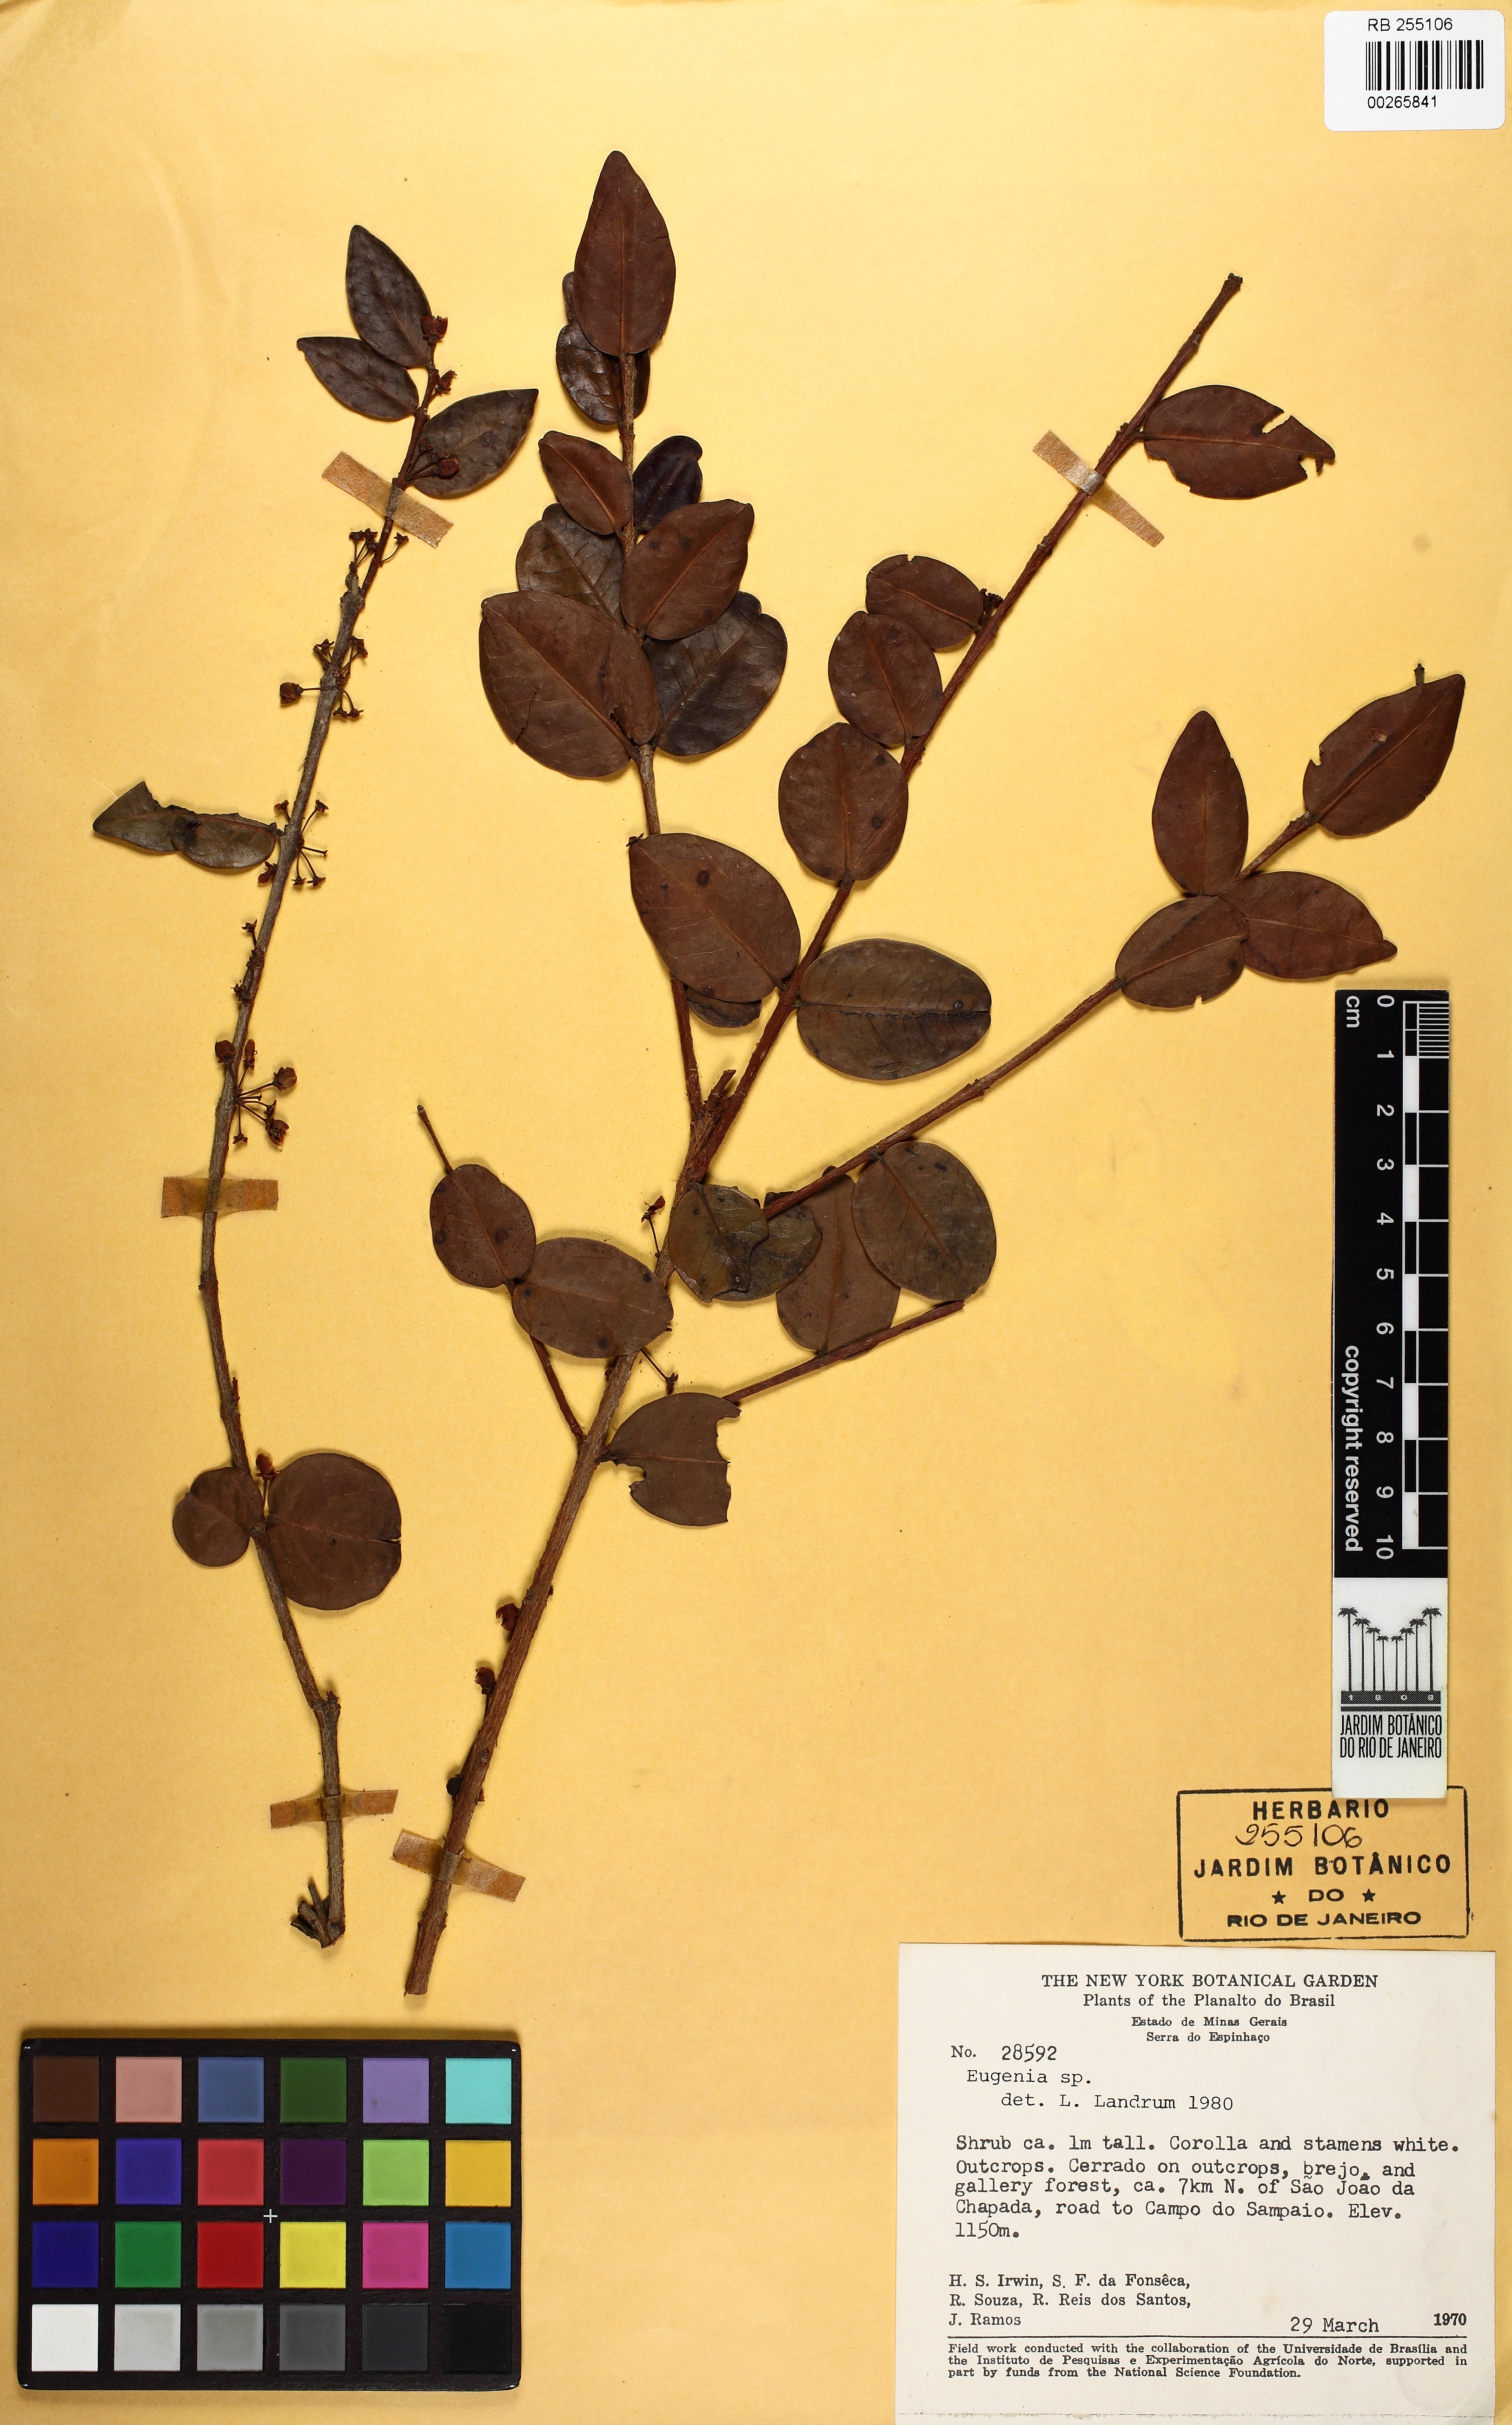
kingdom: Plantae
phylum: Tracheophyta
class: Magnoliopsida
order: Myrtales
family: Myrtaceae
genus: Eugenia
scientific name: Eugenia bimarginata
